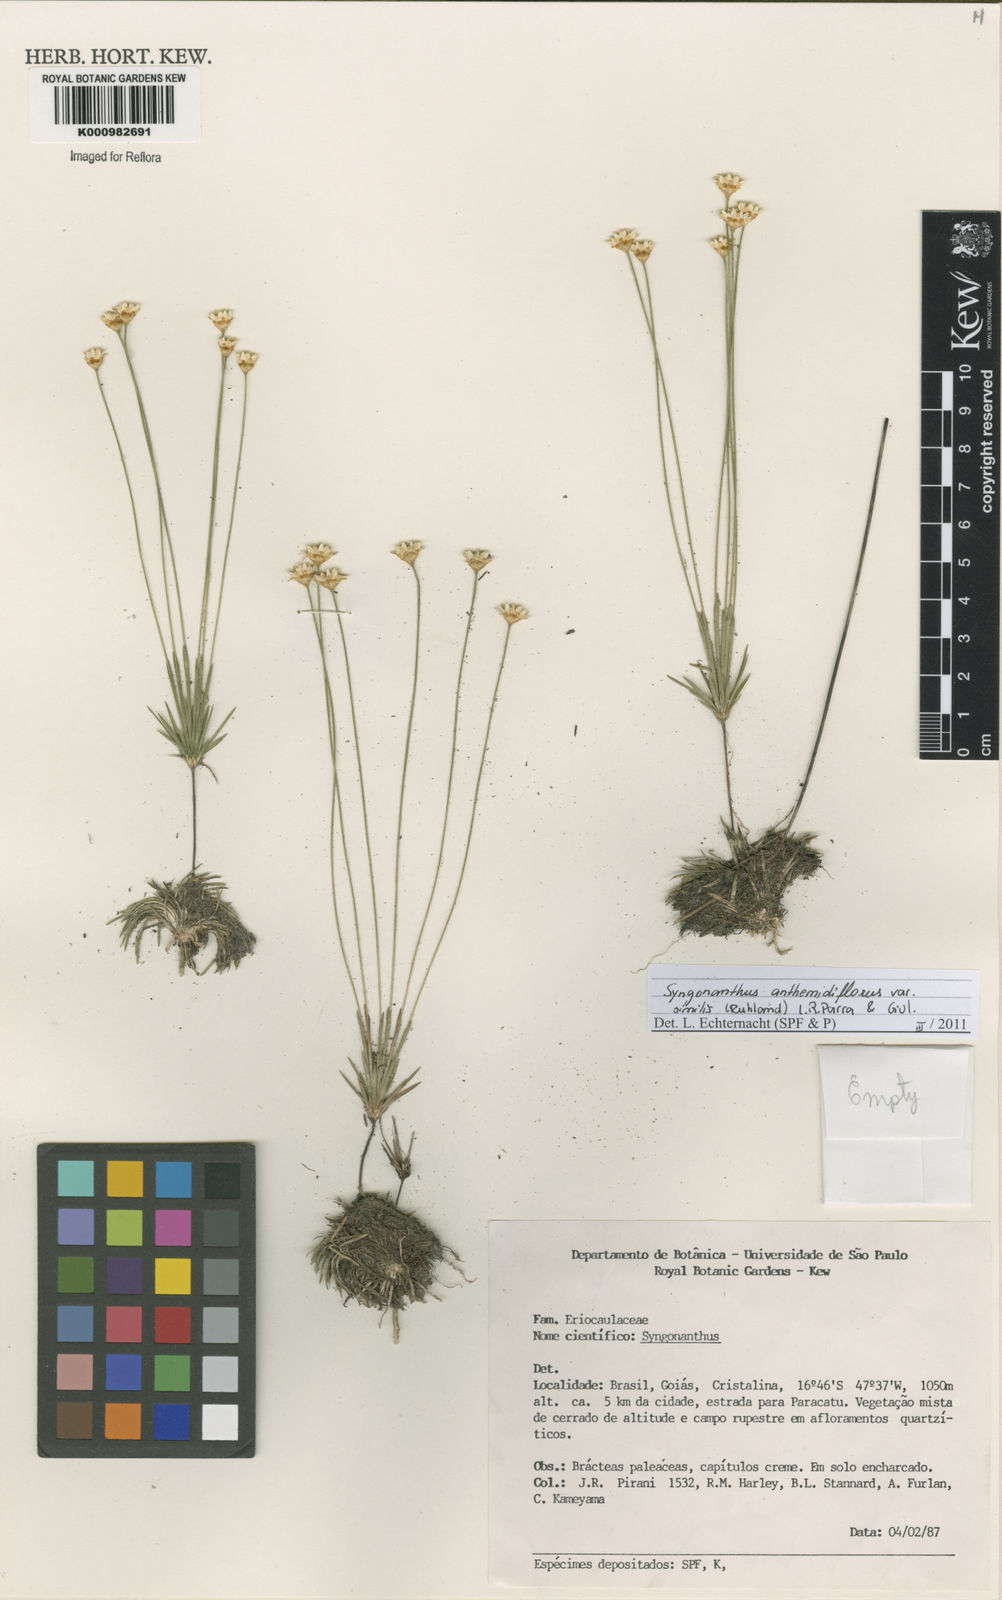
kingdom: Plantae
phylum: Tracheophyta
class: Liliopsida
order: Poales
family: Eriocaulaceae
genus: Syngonanthus
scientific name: Syngonanthus anthemidiflorus
